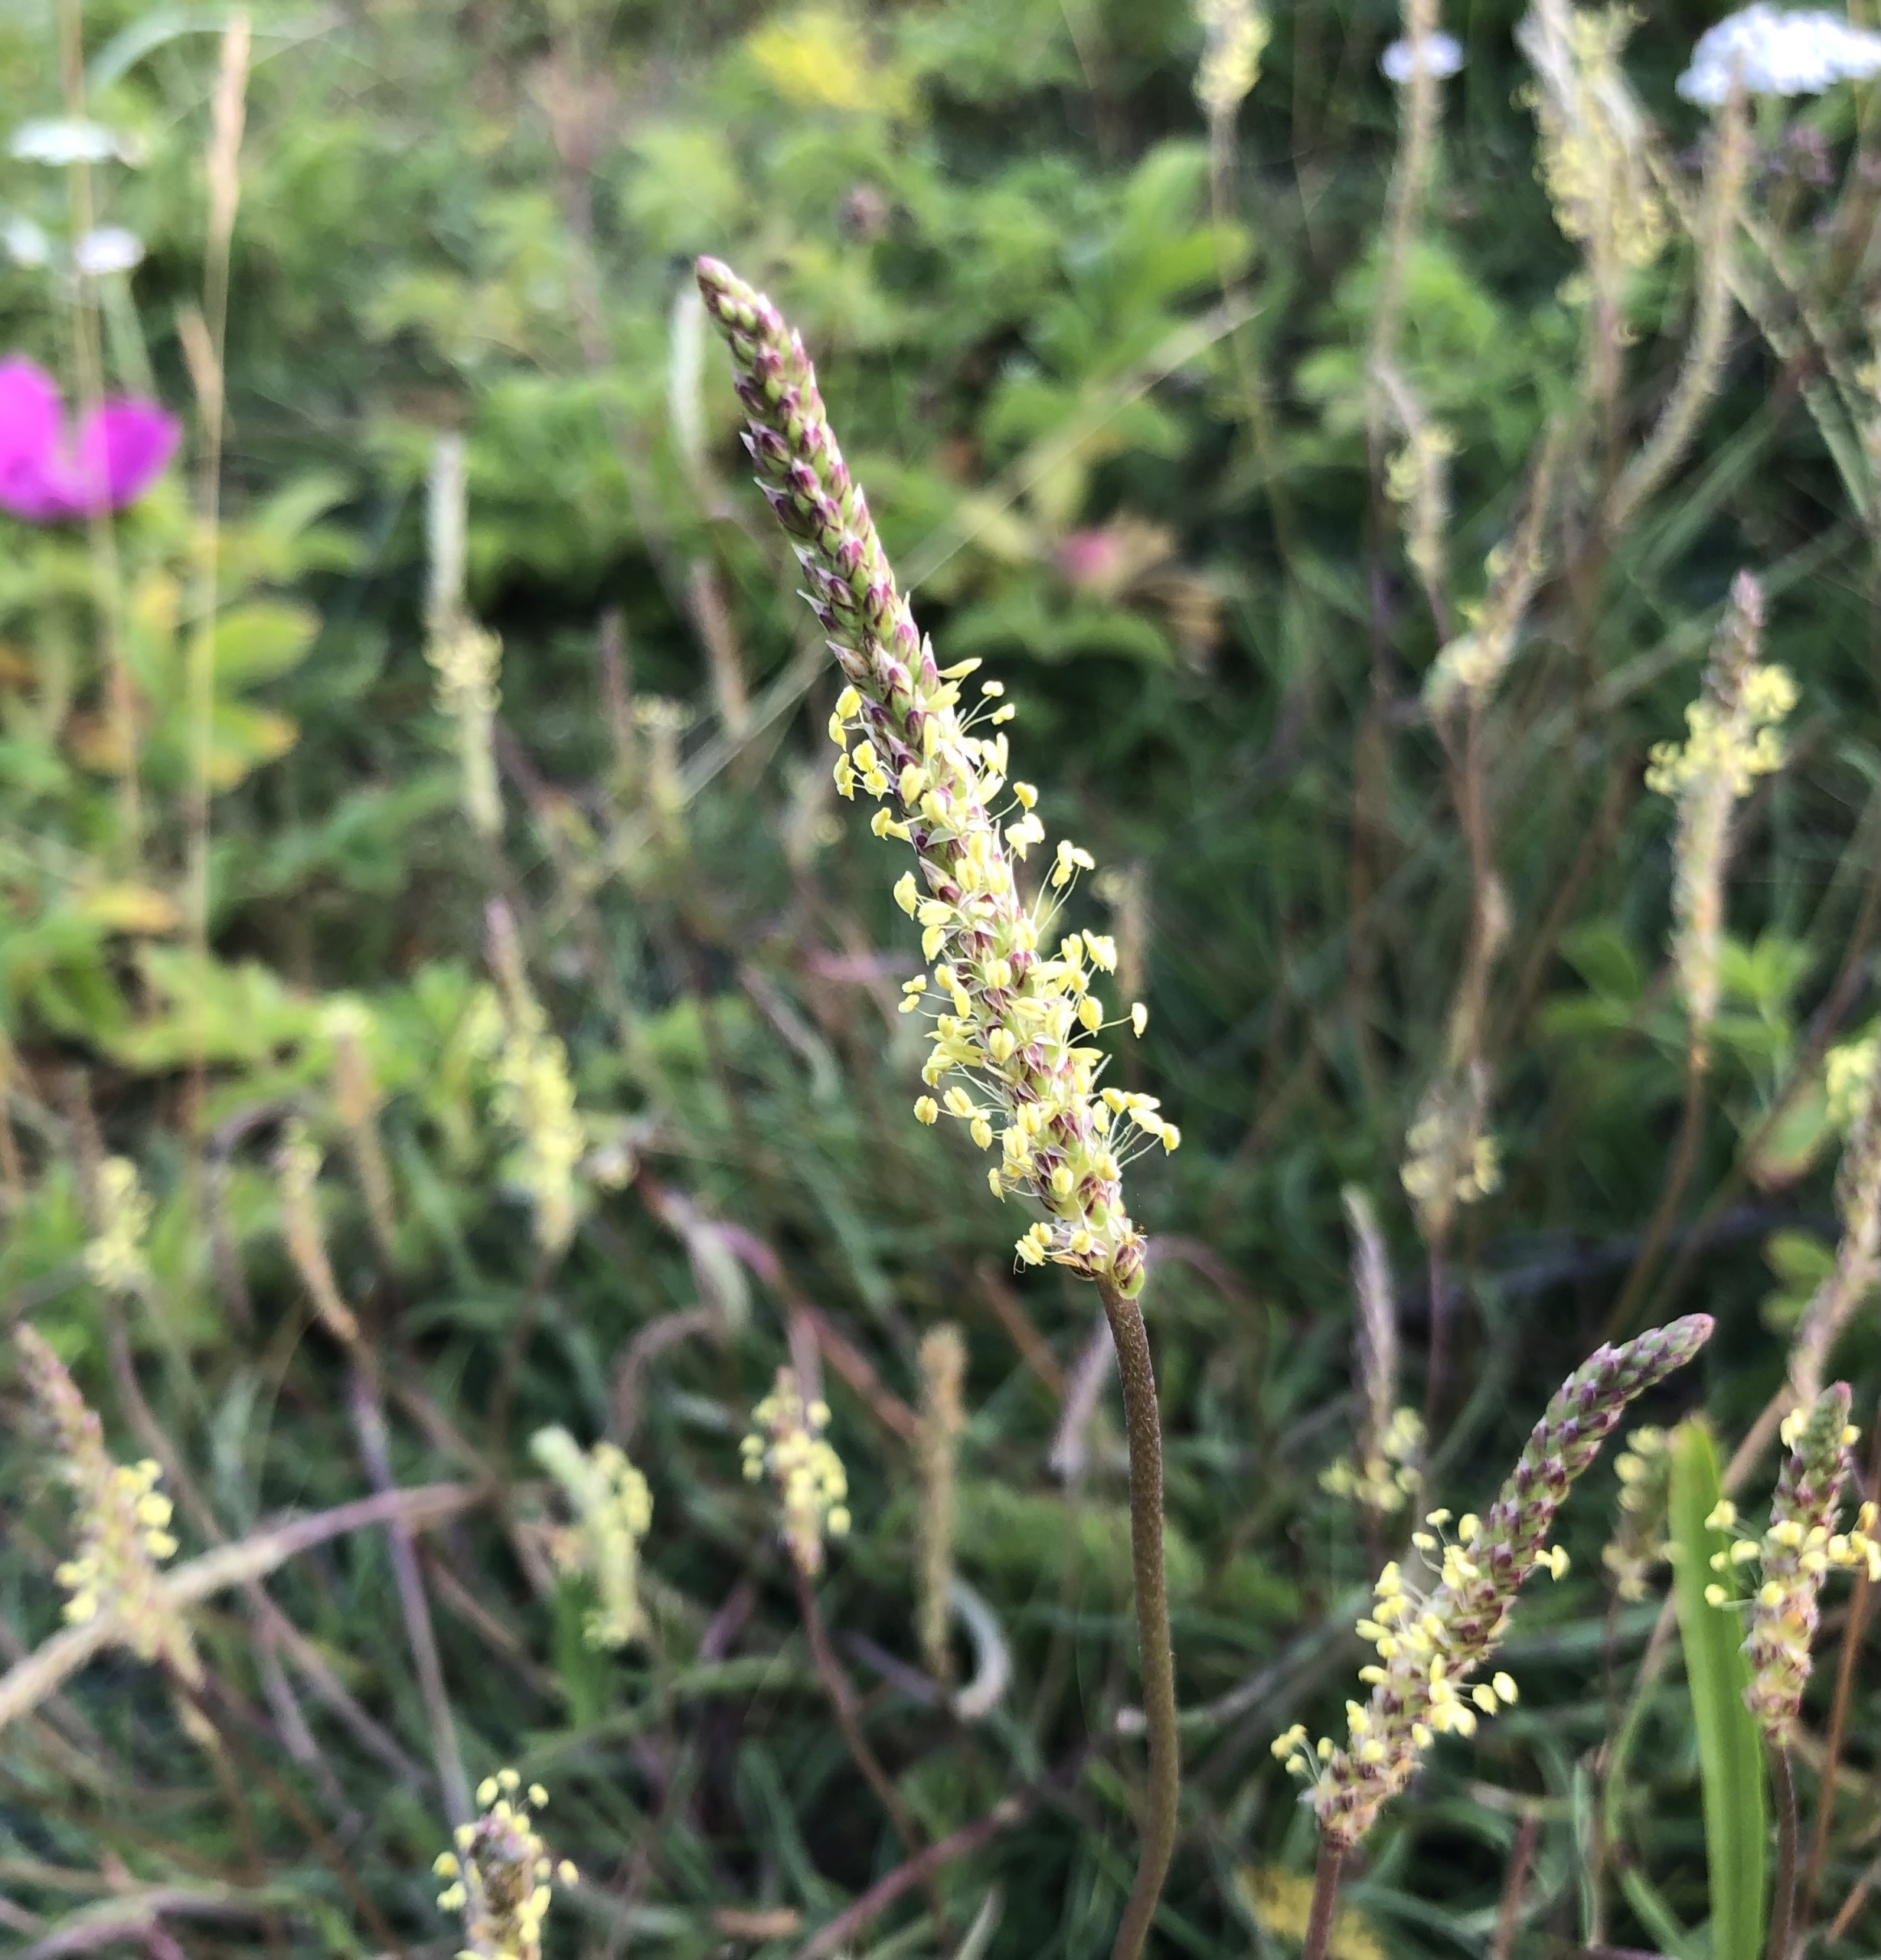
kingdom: Plantae
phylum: Tracheophyta
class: Magnoliopsida
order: Lamiales
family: Plantaginaceae
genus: Plantago
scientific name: Plantago maritima
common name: Strand-vejbred
